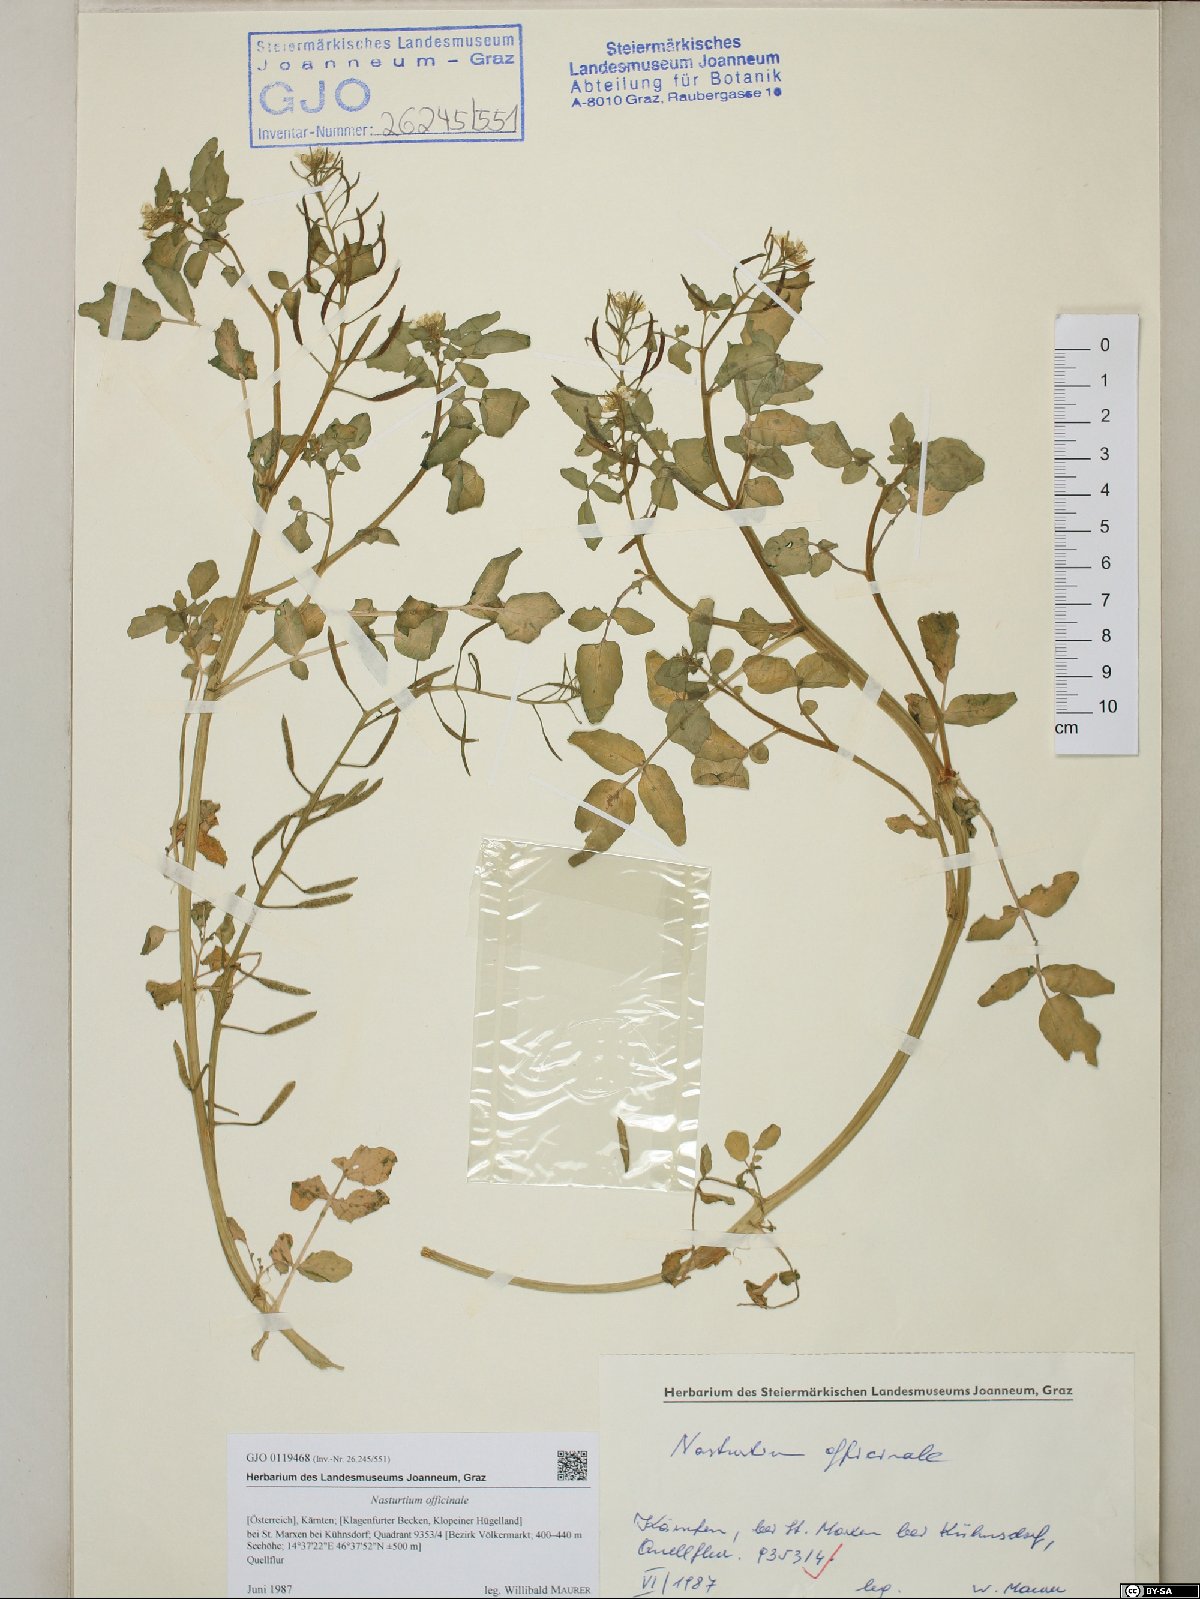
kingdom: Plantae
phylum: Tracheophyta
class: Magnoliopsida
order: Brassicales
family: Brassicaceae
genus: Nasturtium
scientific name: Nasturtium officinale
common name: Watercress
